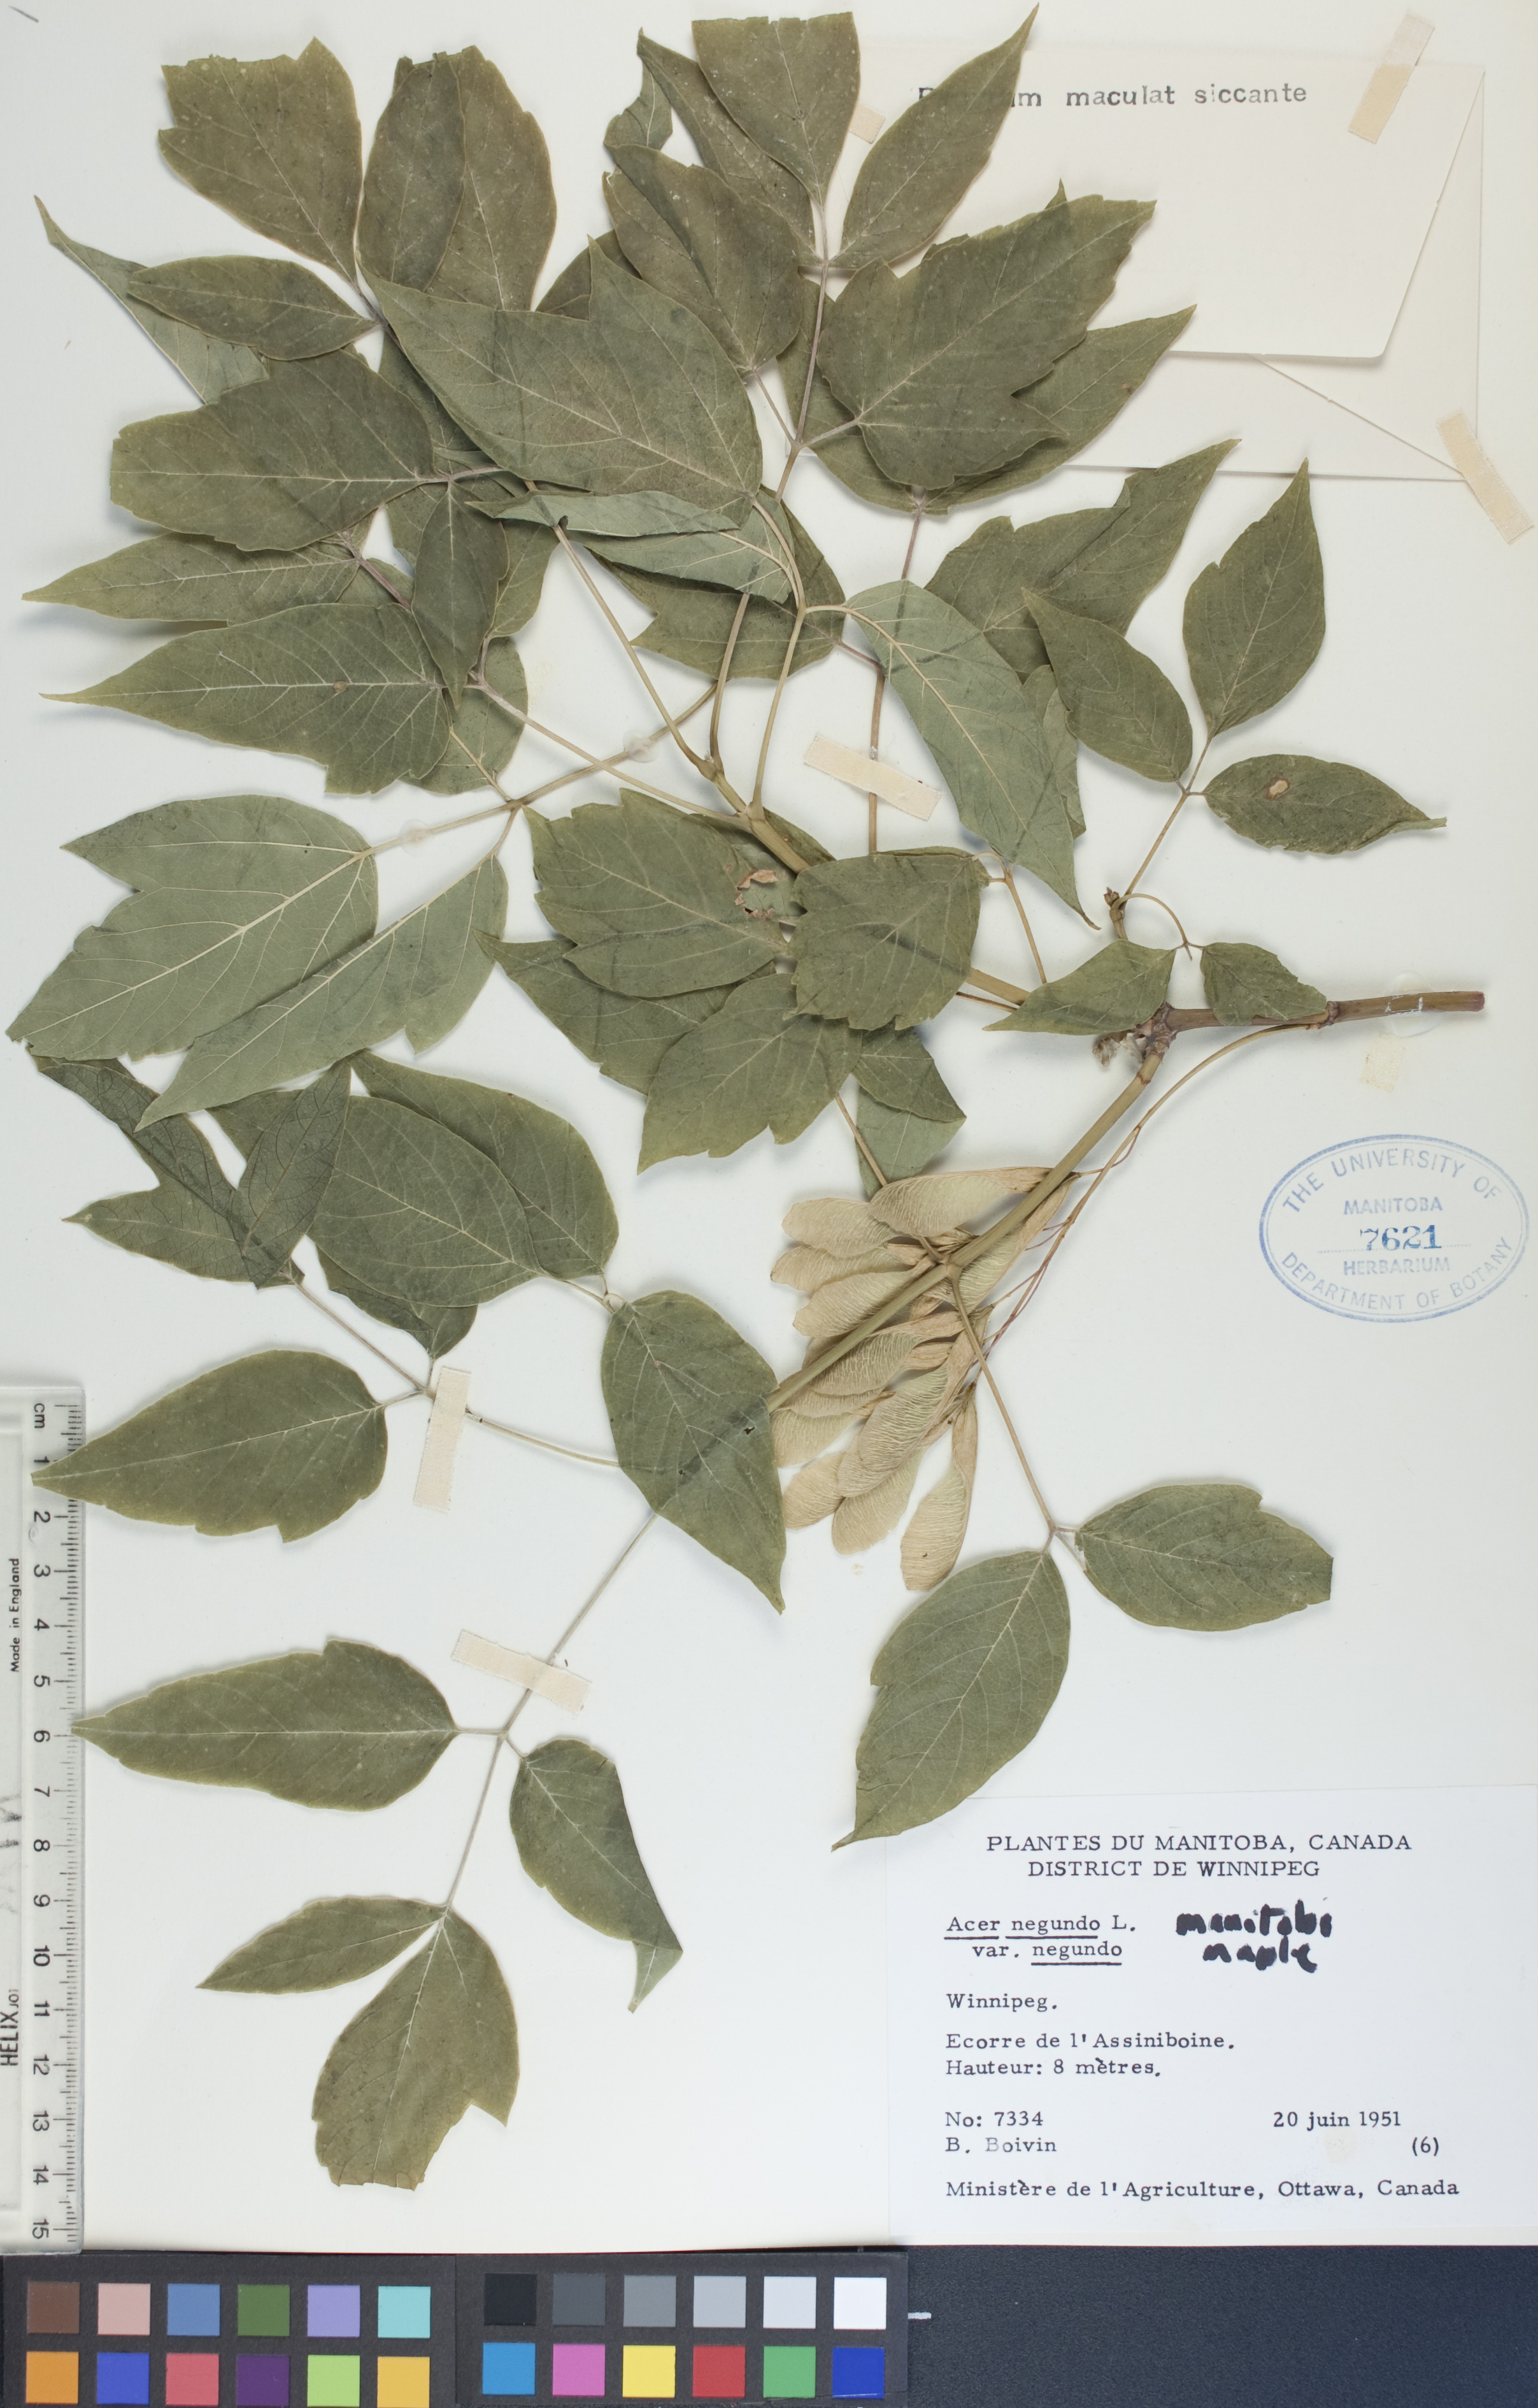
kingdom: Plantae
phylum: Tracheophyta
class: Magnoliopsida
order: Sapindales
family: Sapindaceae
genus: Acer
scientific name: Acer negundo
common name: Ashleaf maple
